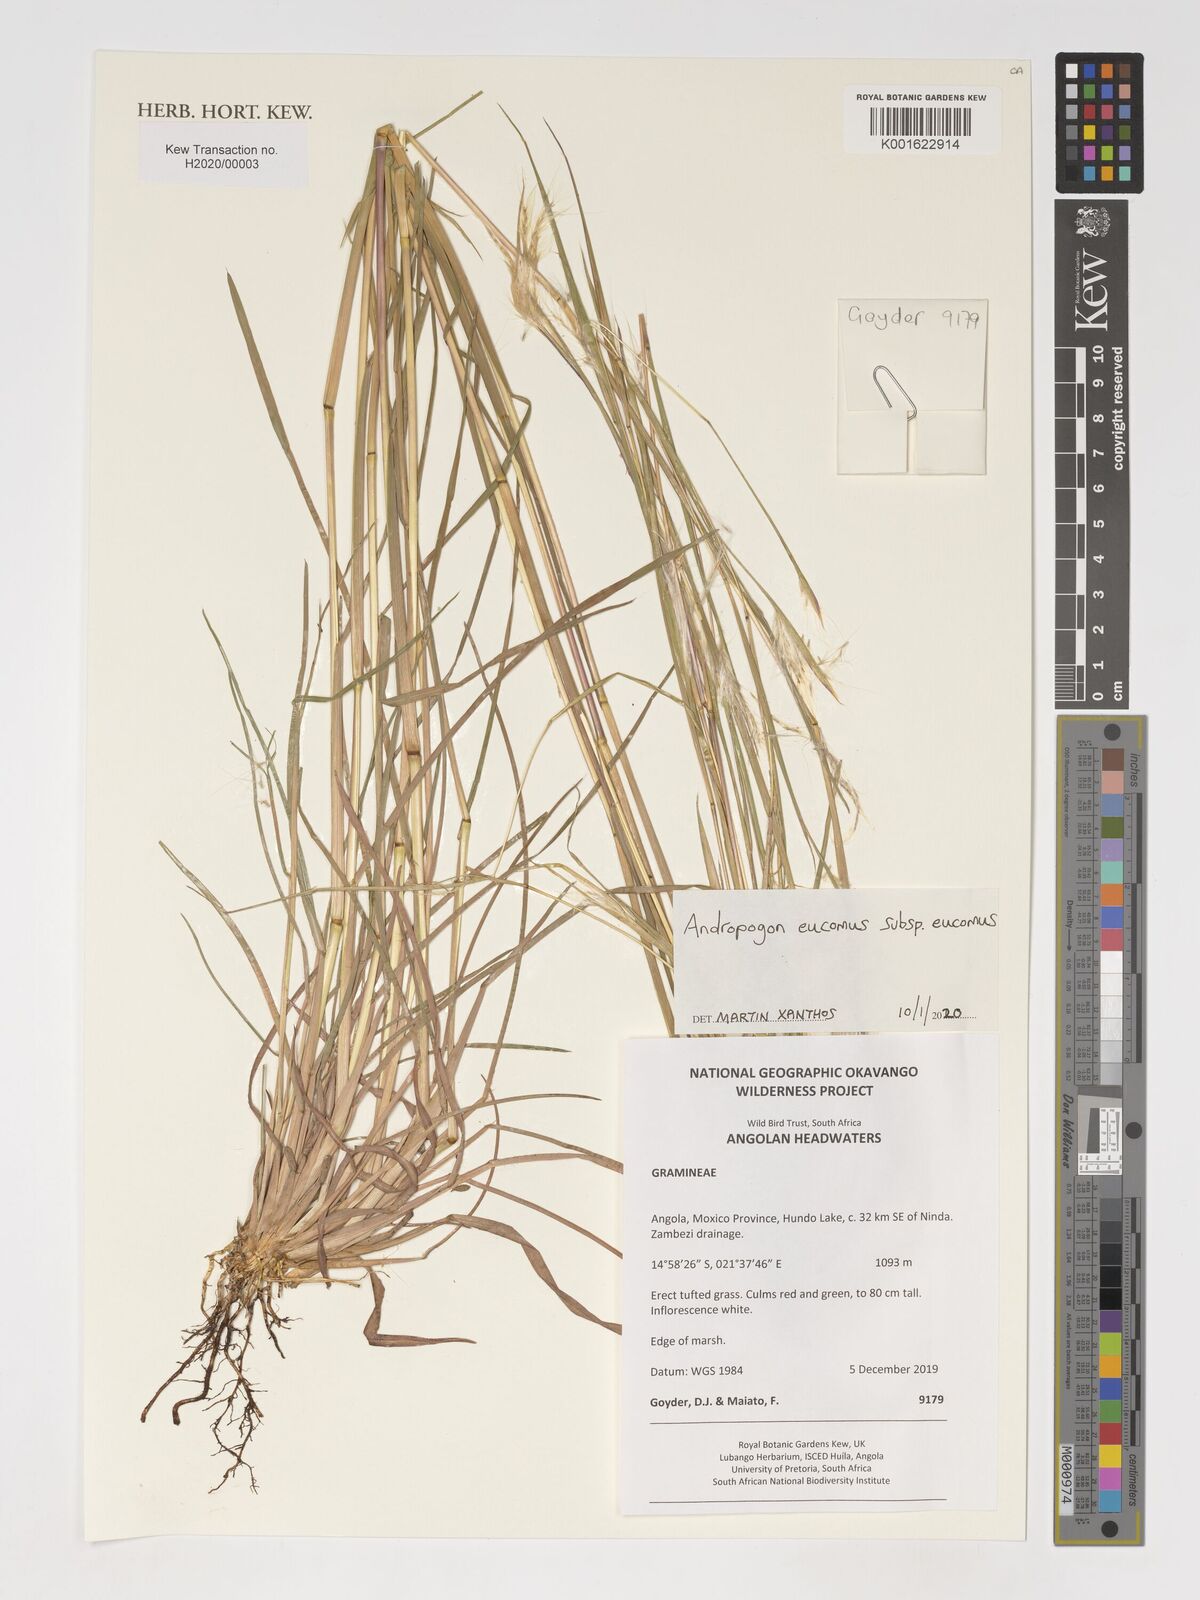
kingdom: Plantae
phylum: Tracheophyta
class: Liliopsida
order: Poales
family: Poaceae
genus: Andropogon
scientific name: Andropogon eucomus
